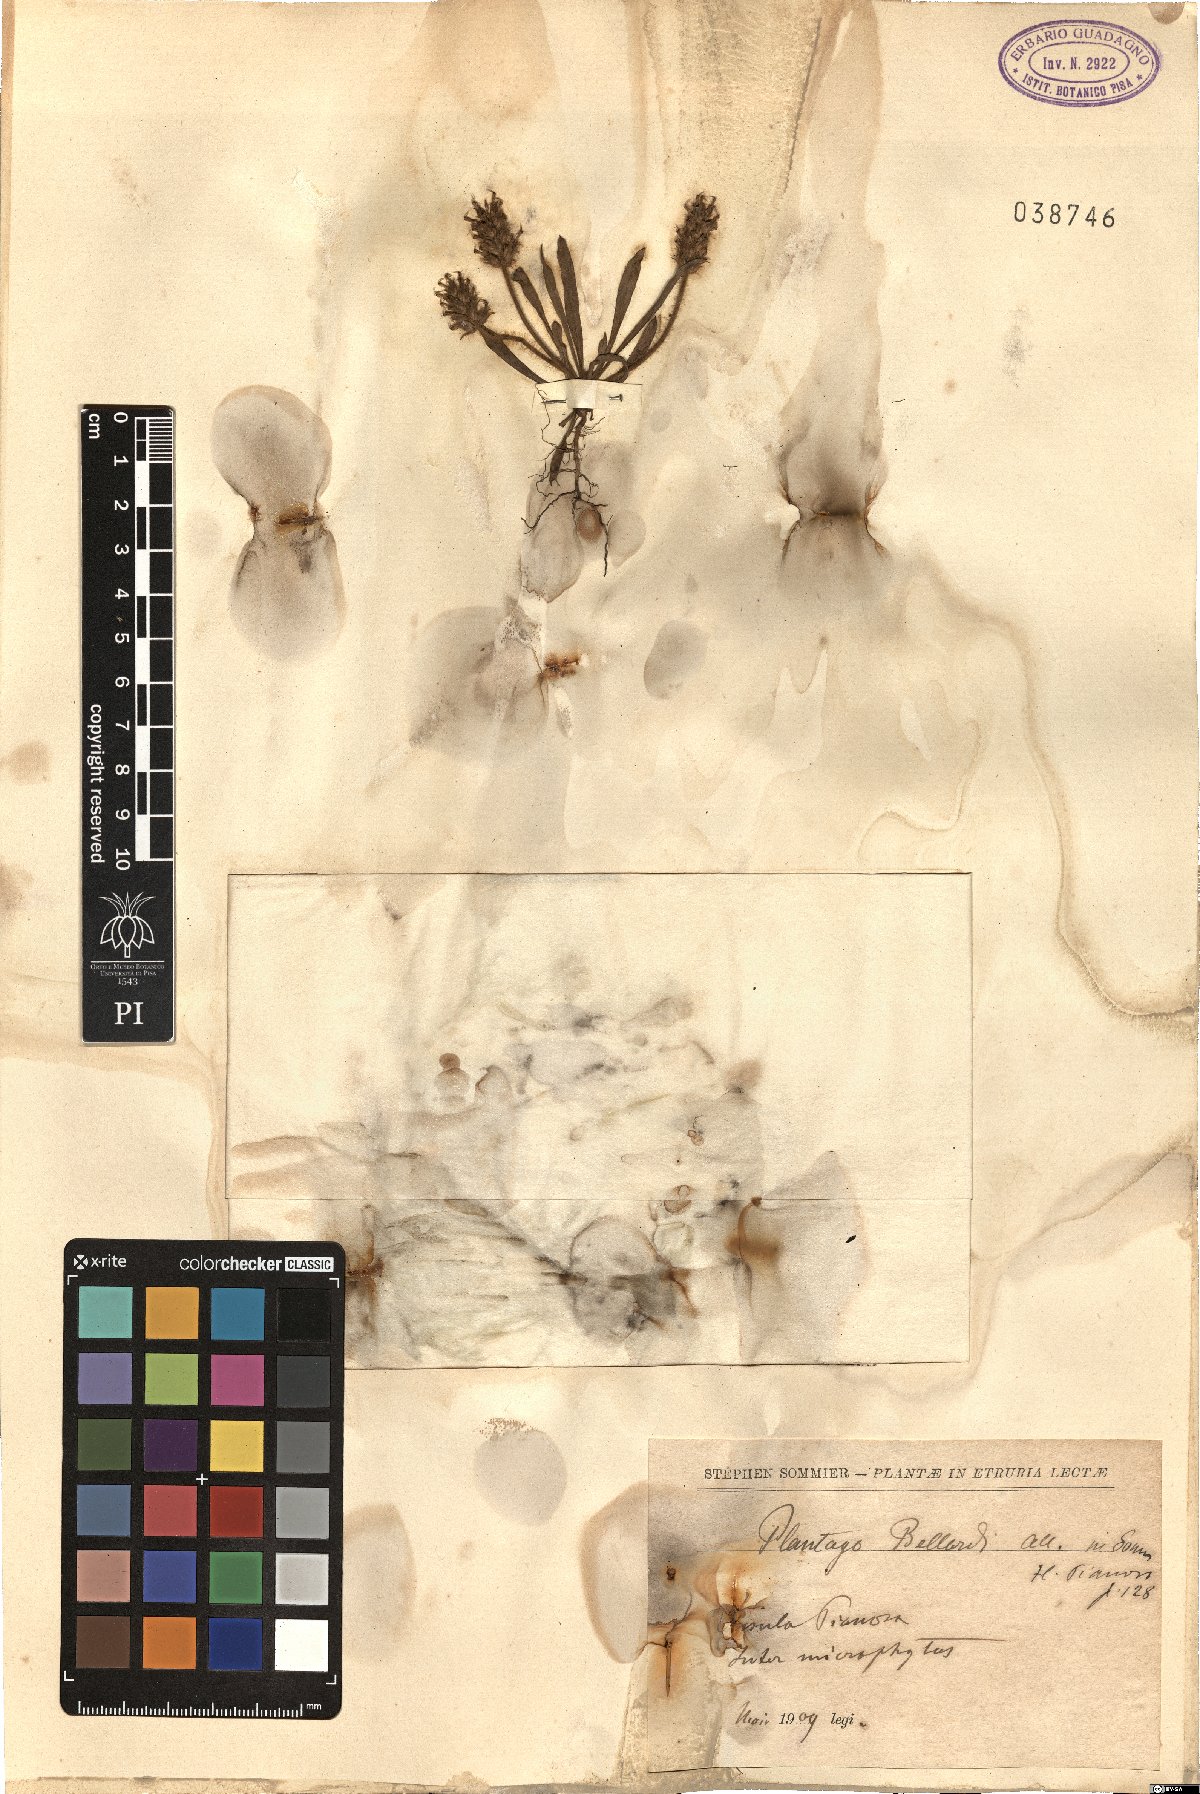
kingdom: Plantae
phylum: Tracheophyta
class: Magnoliopsida
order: Lamiales
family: Plantaginaceae
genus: Plantago
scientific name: Plantago bellardii
